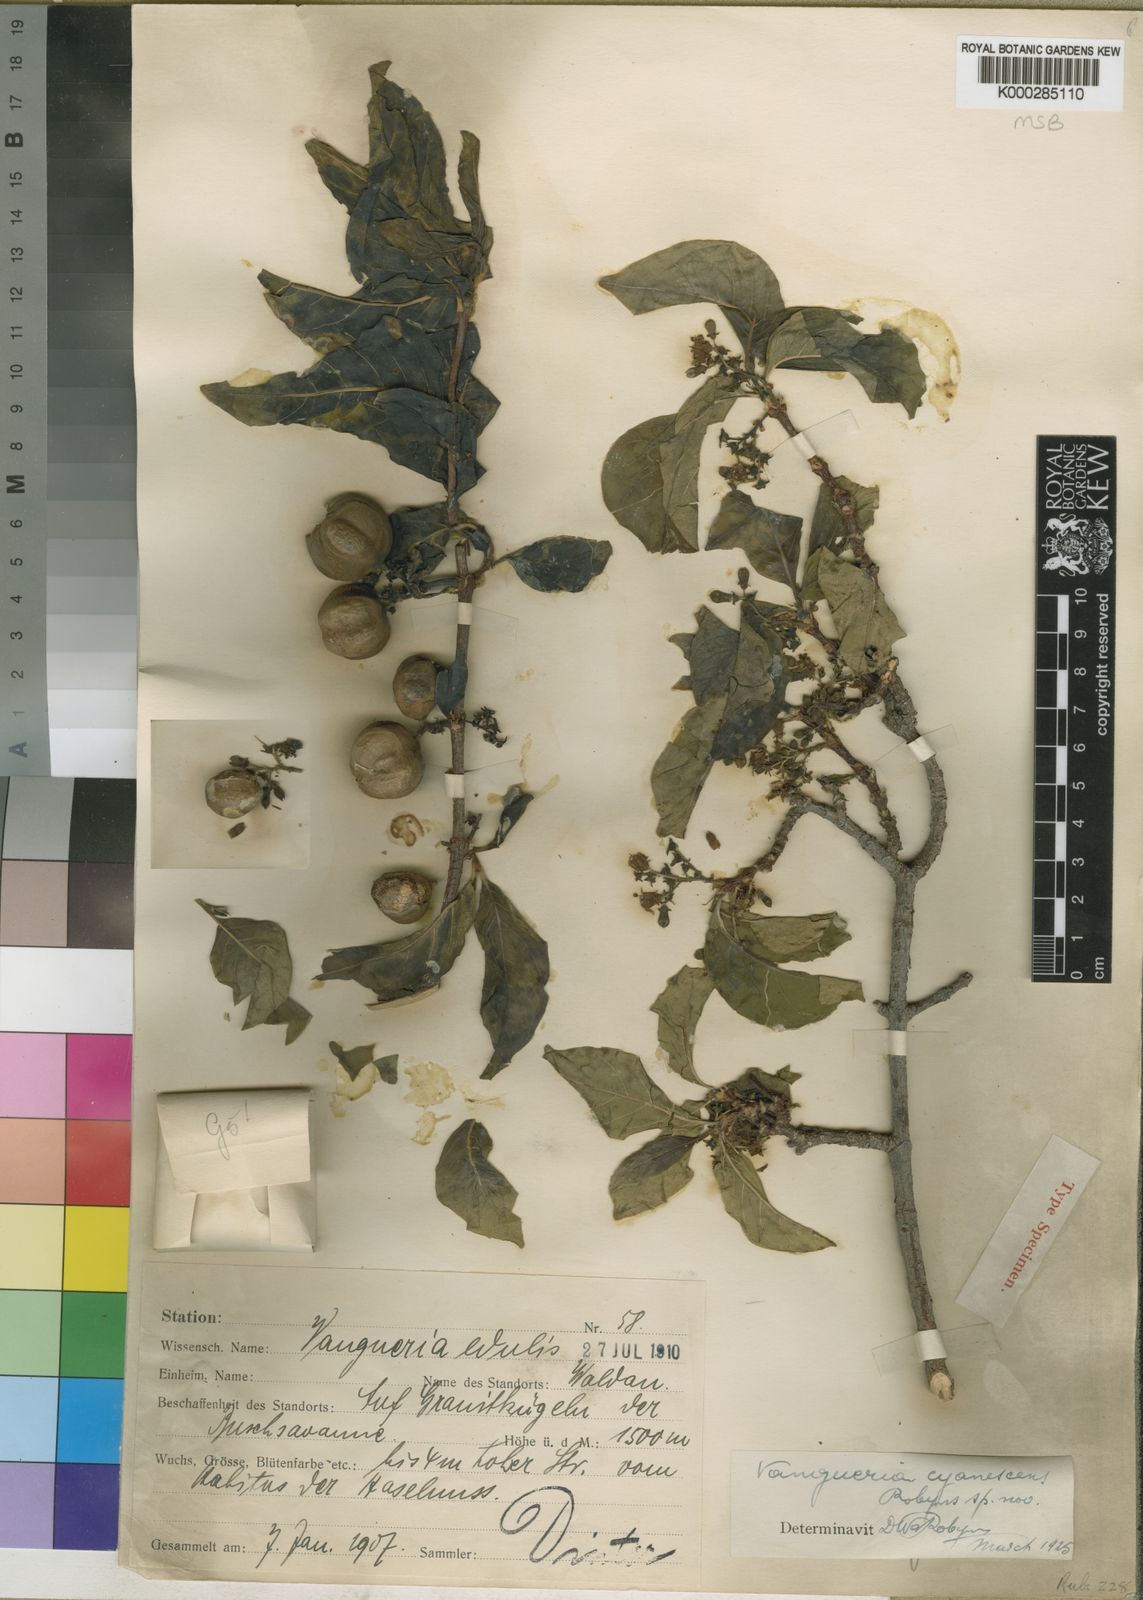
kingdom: Plantae
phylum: Tracheophyta
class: Magnoliopsida
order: Gentianales
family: Rubiaceae
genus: Vangueria
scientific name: Vangueria cyanescens
